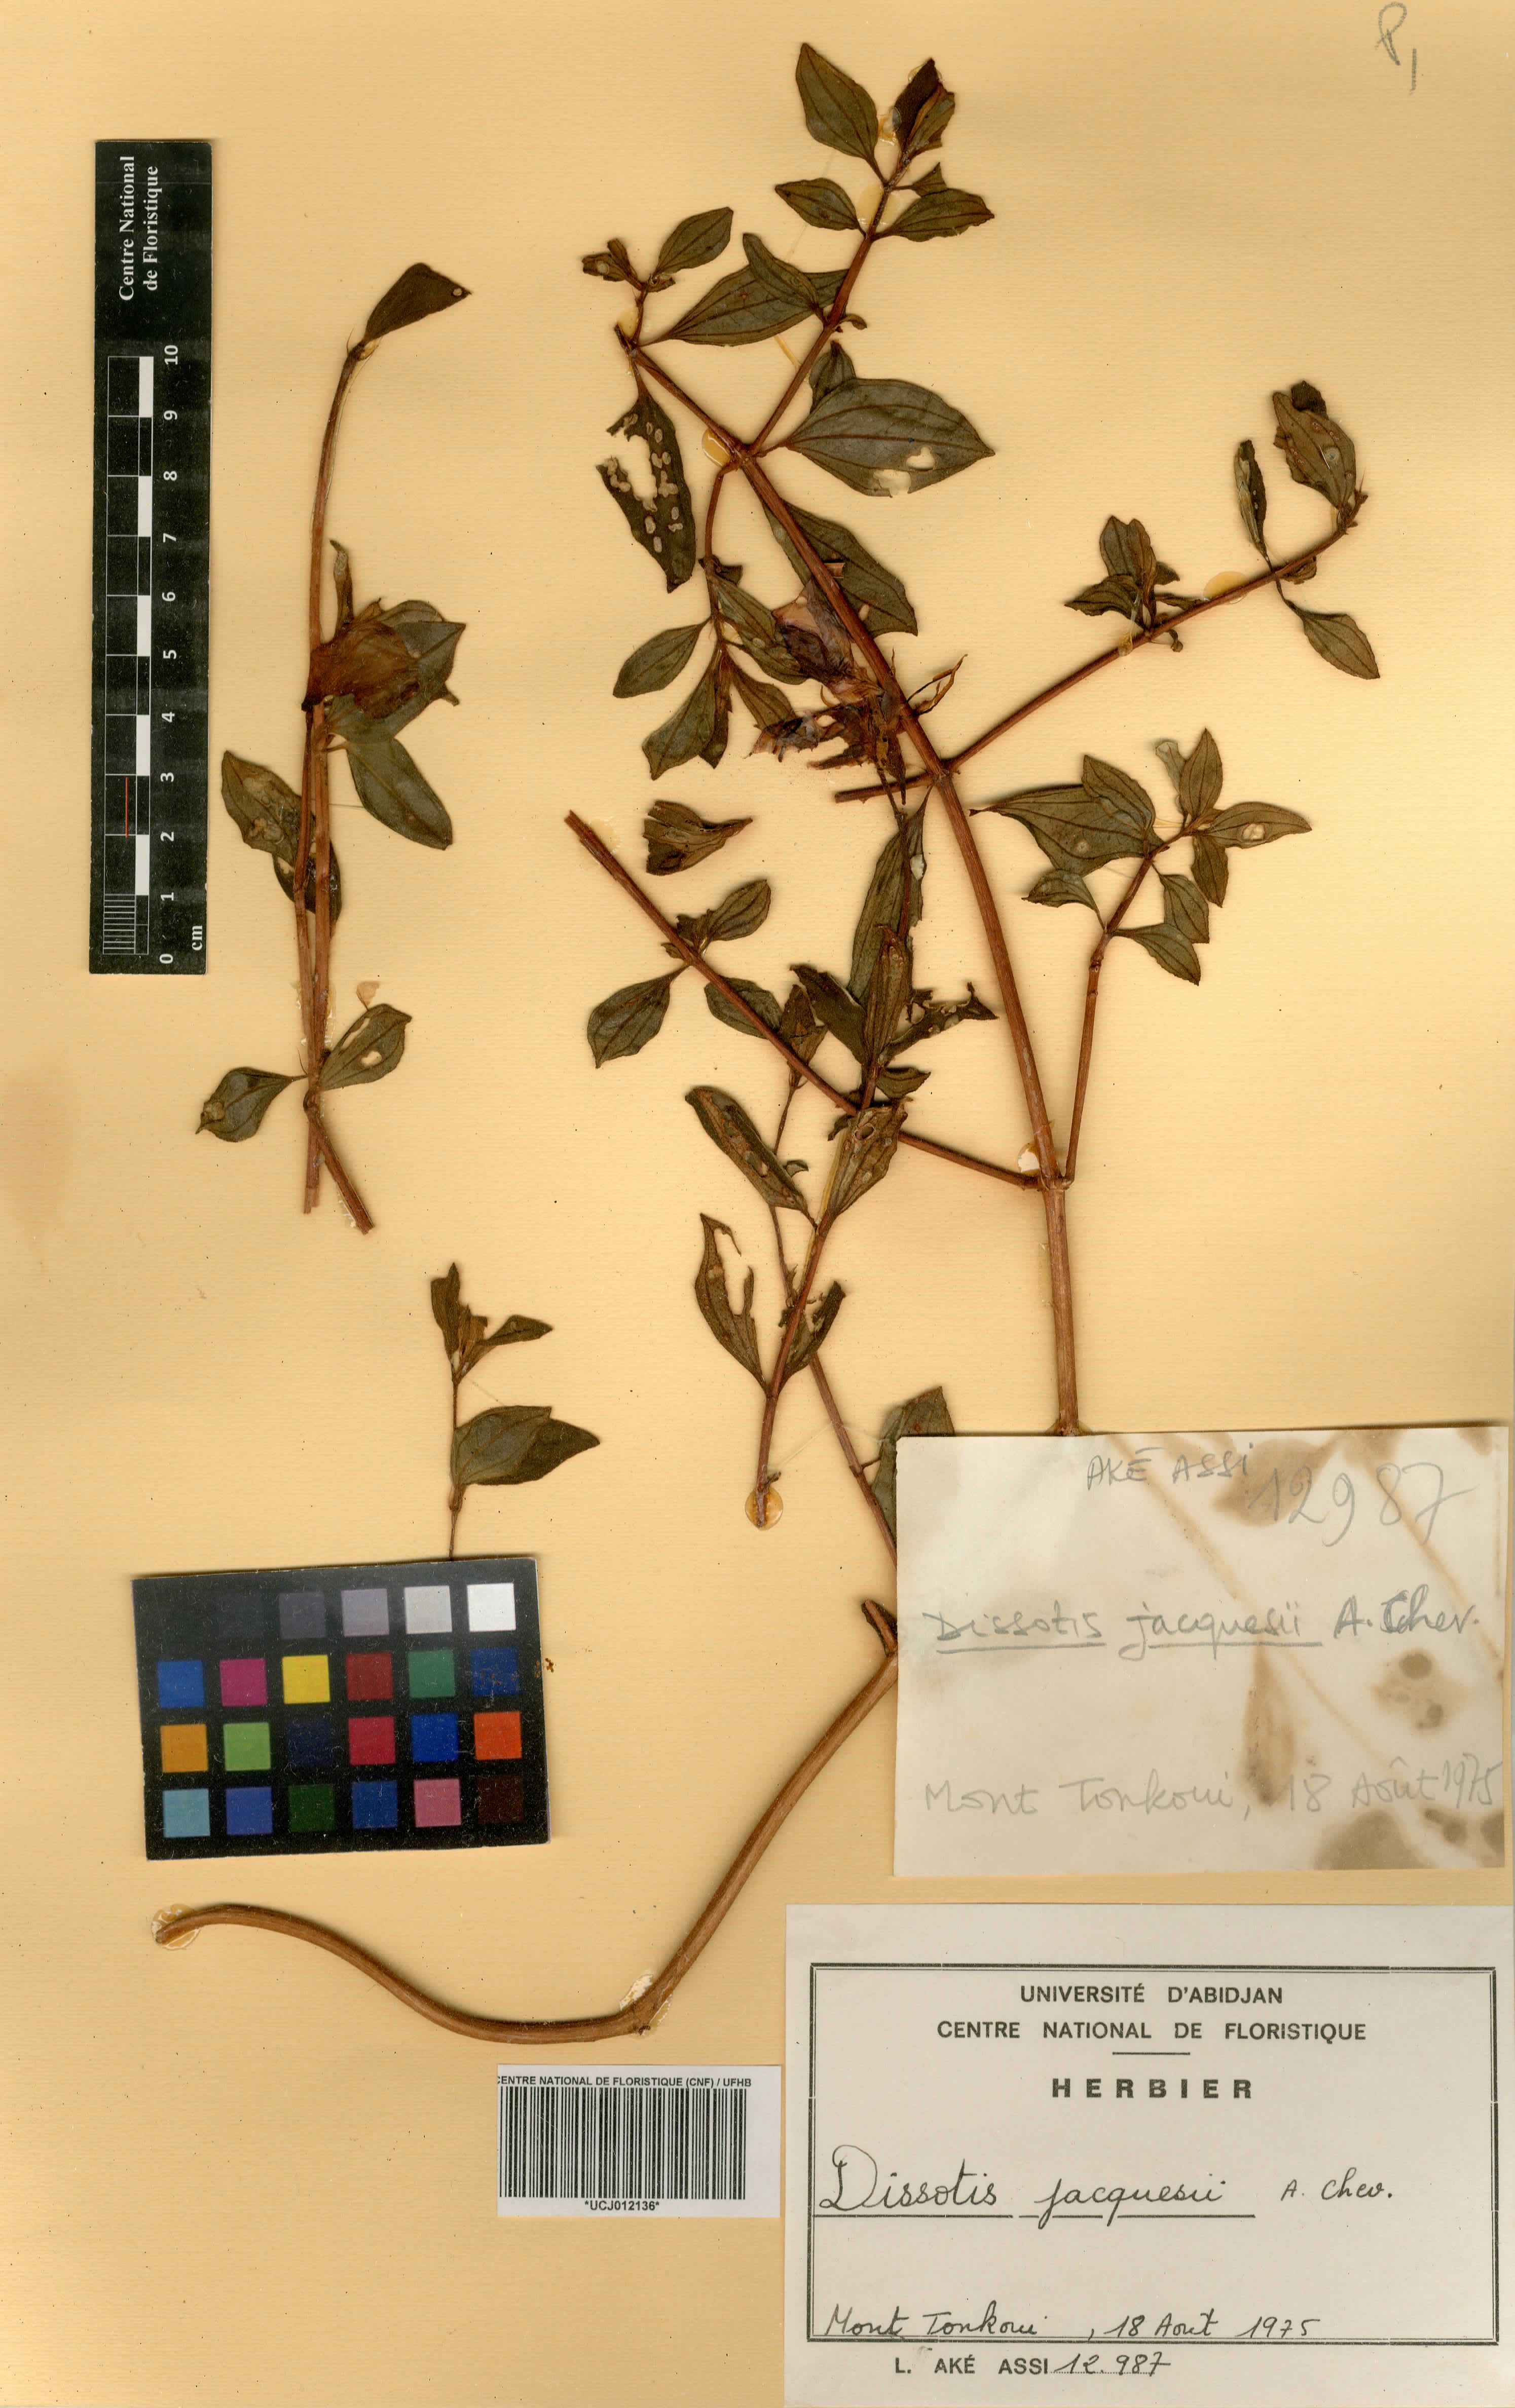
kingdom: Plantae
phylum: Tracheophyta
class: Magnoliopsida
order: Myrtales
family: Melastomataceae
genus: Guyonia
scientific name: Guyonia jacquesii
